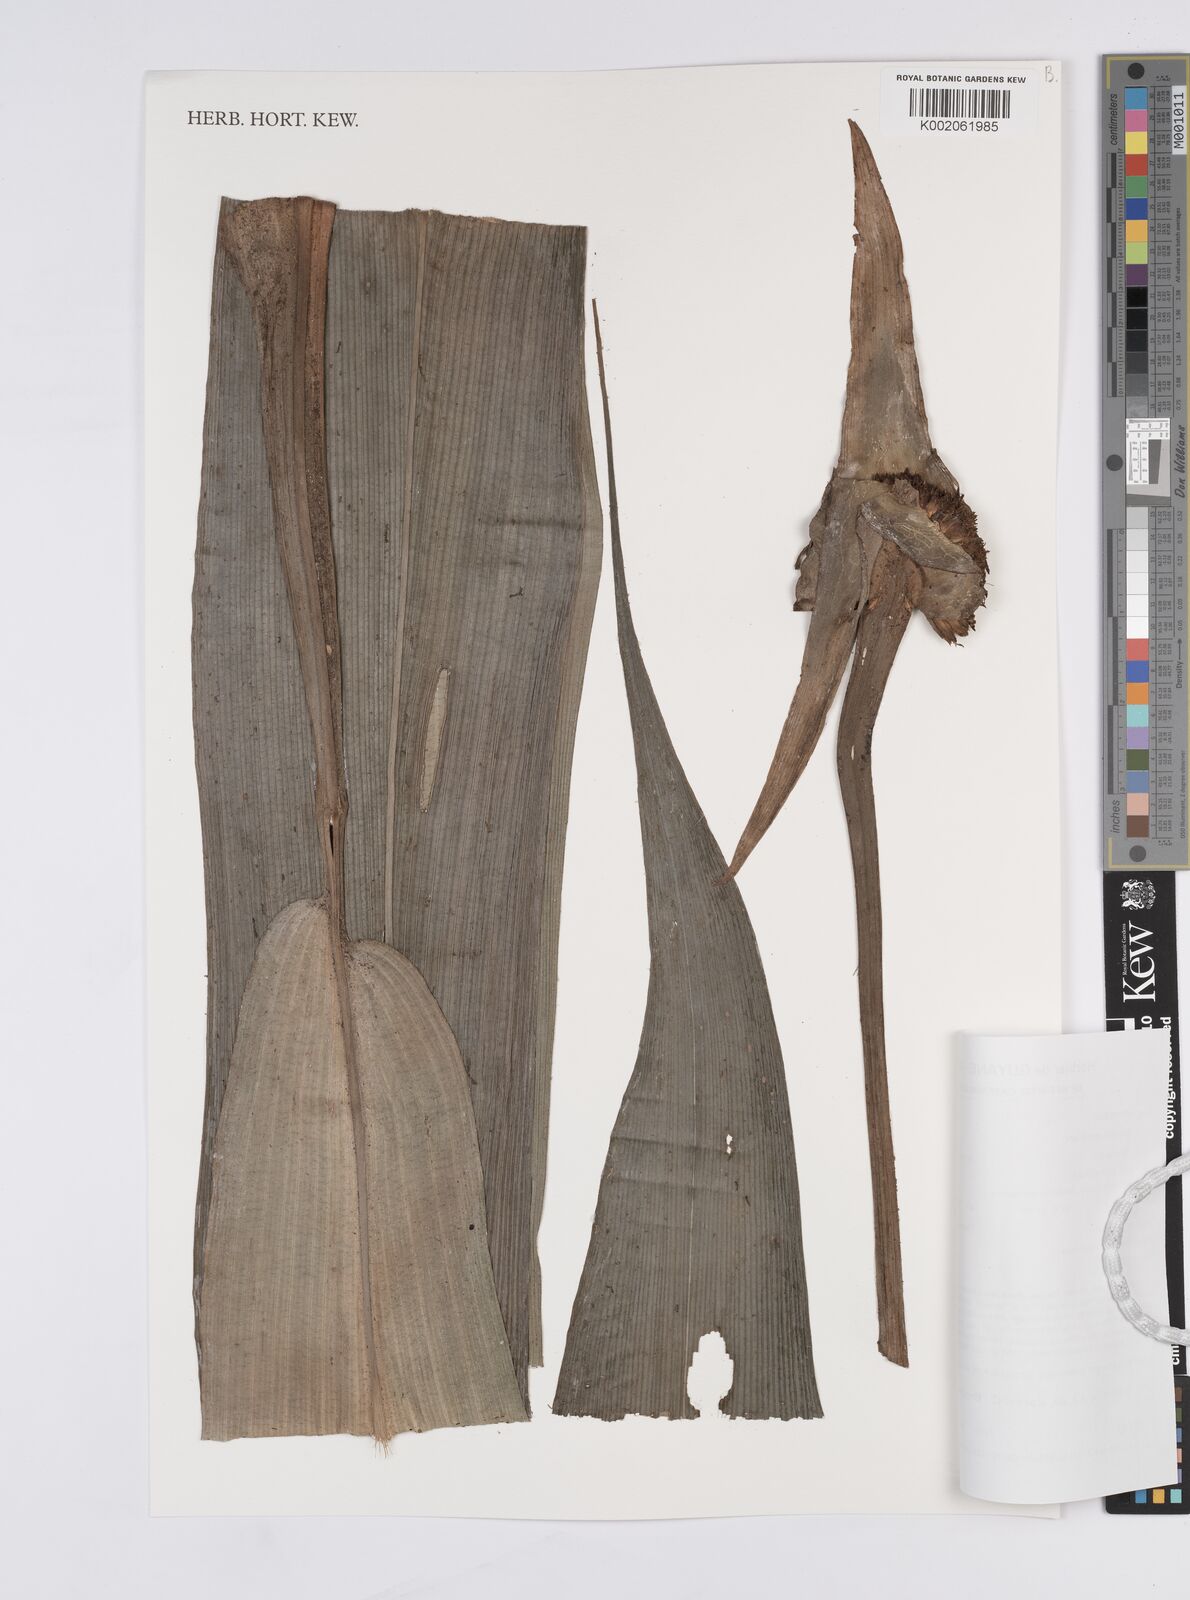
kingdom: Plantae
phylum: Tracheophyta
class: Liliopsida
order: Poales
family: Rapateaceae
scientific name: Rapateaceae
